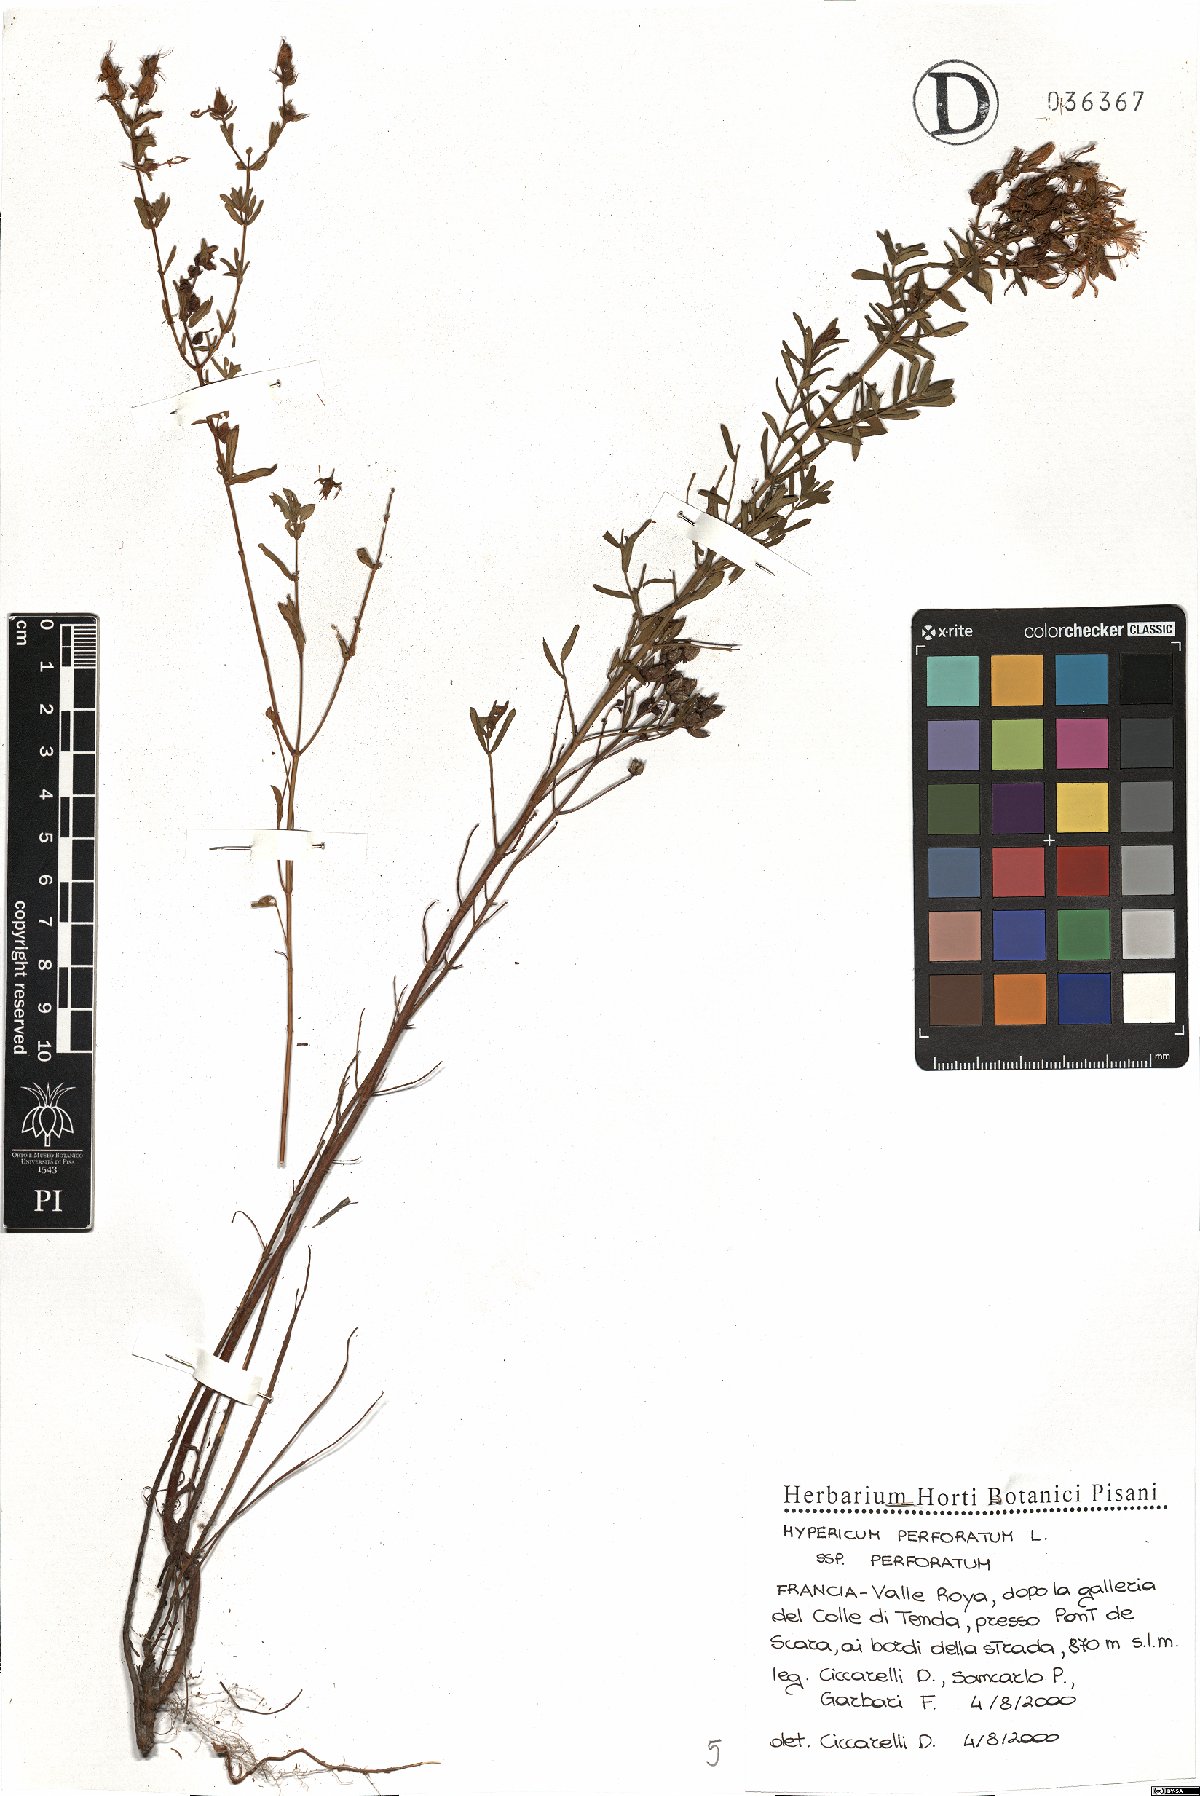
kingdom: Plantae
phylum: Tracheophyta
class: Magnoliopsida
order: Malpighiales
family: Hypericaceae
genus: Hypericum
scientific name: Hypericum perforatum
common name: Common st. johnswort
